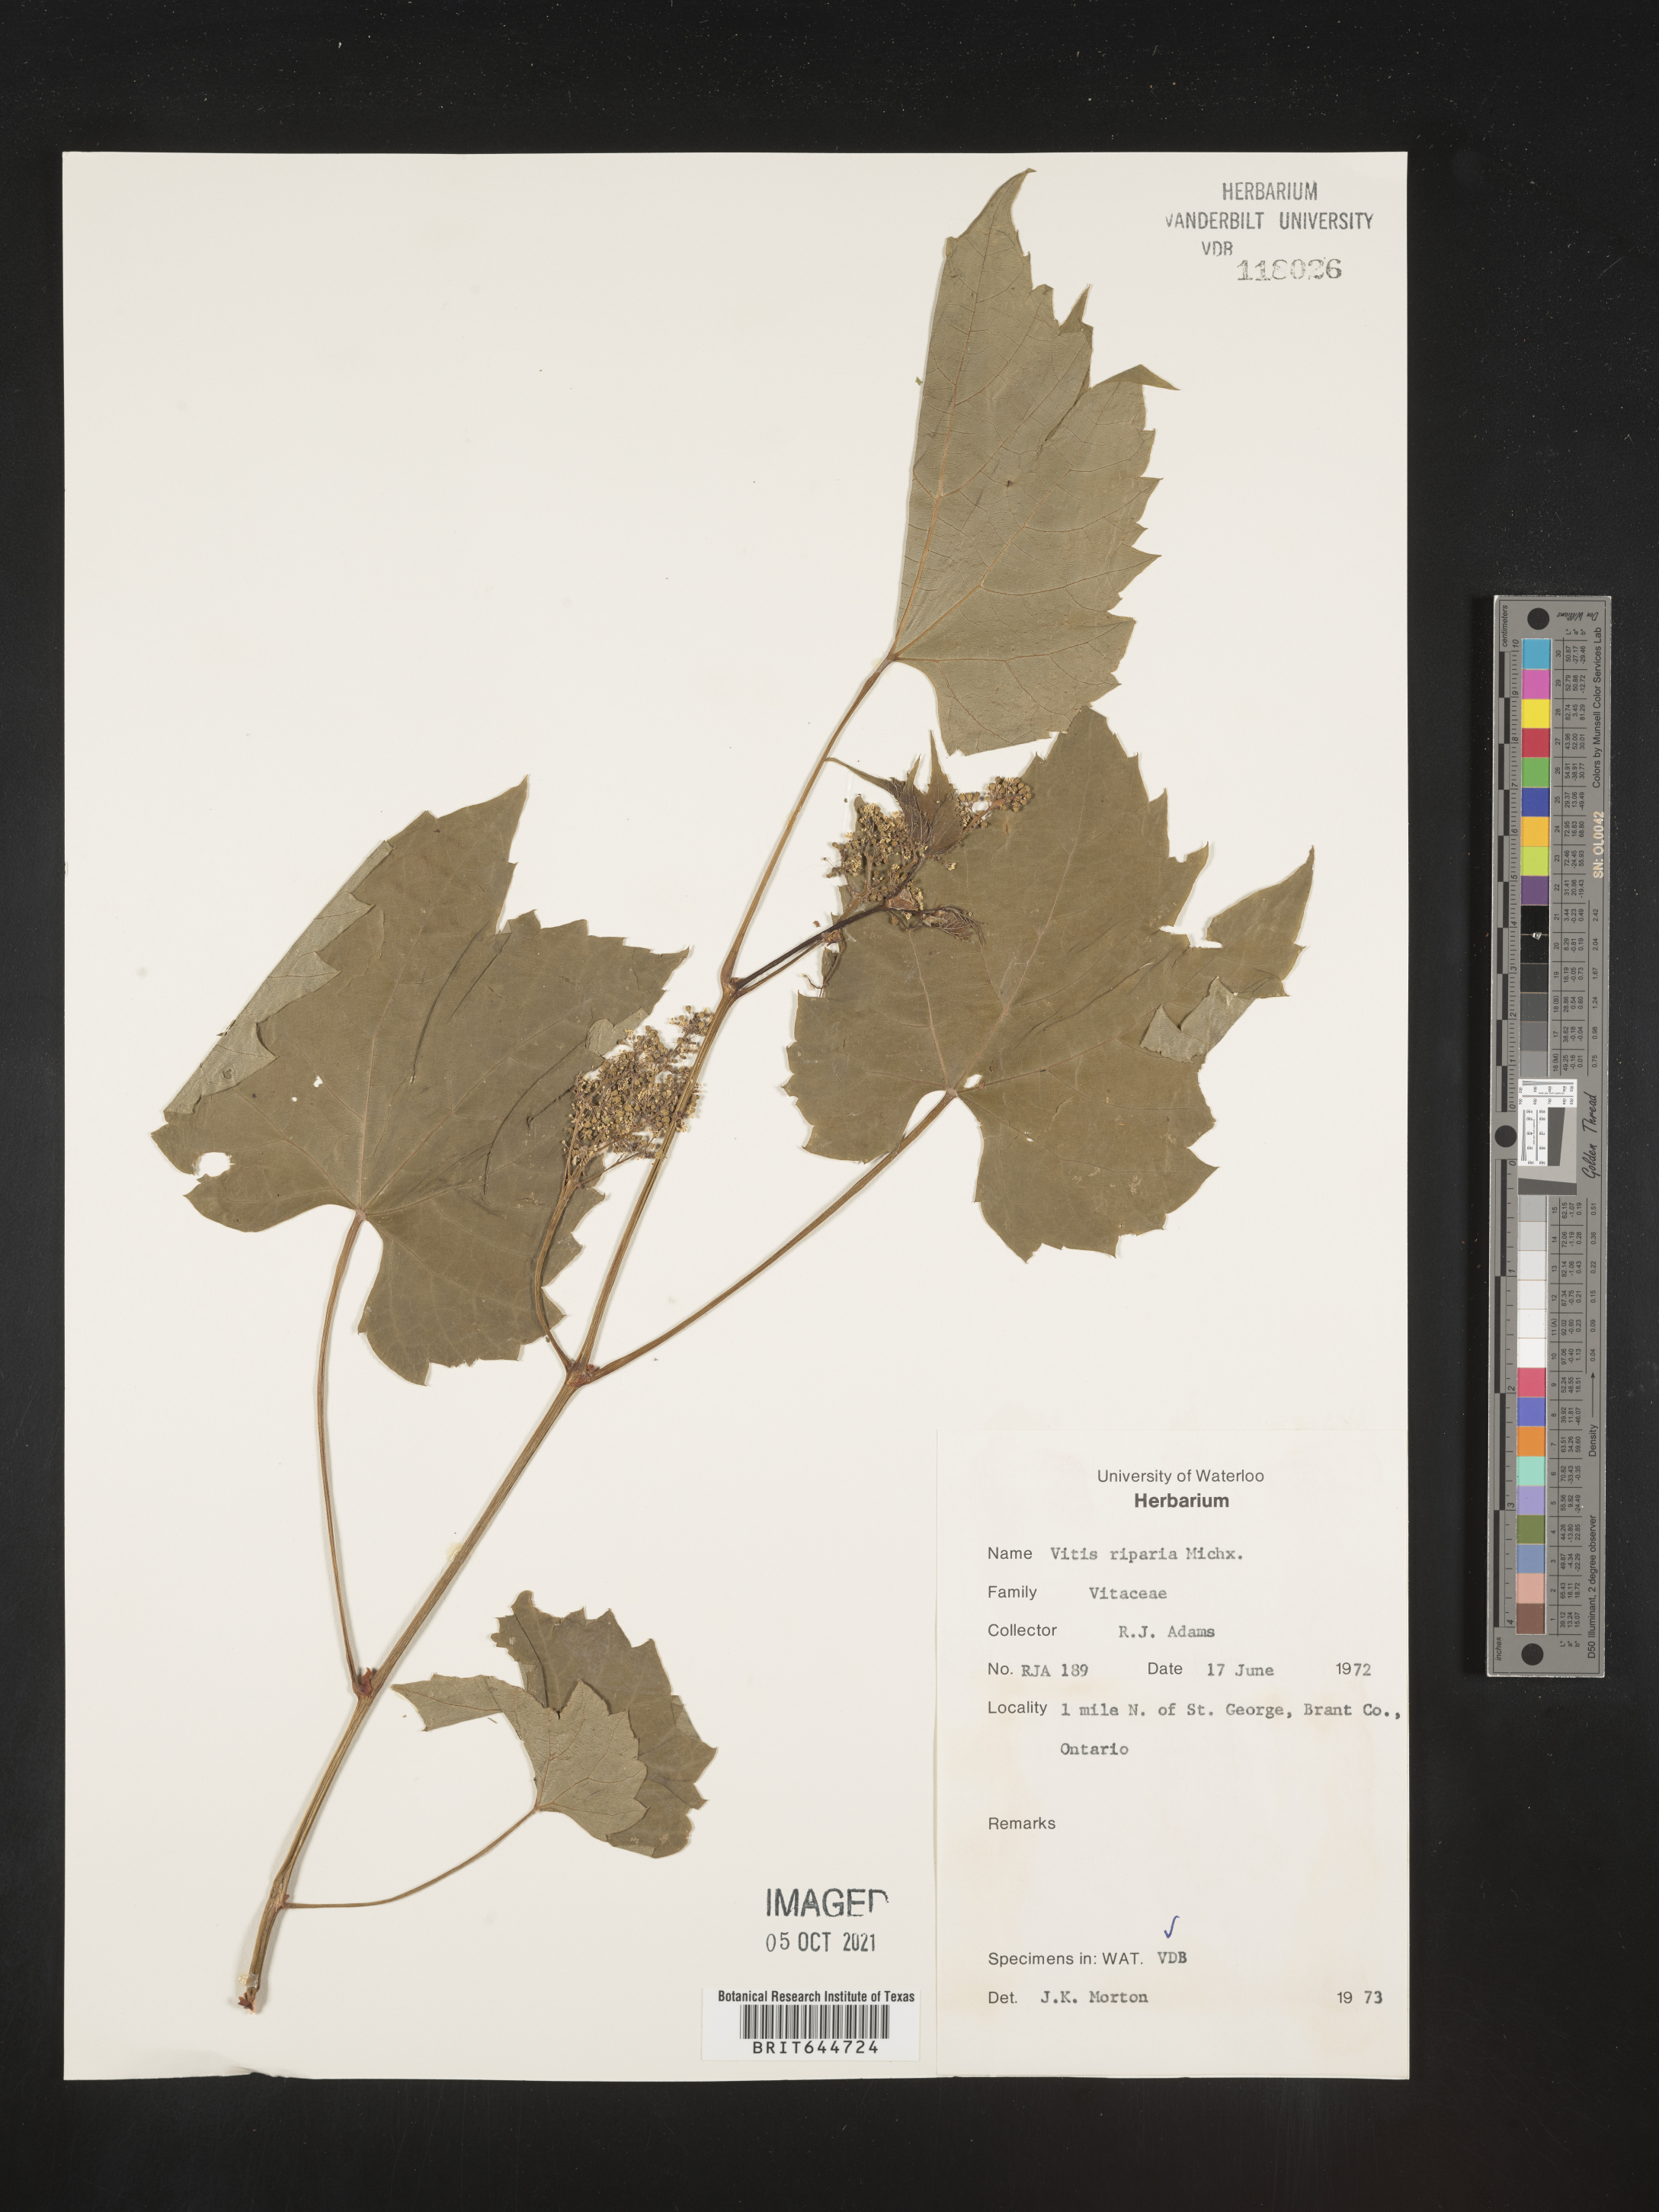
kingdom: Plantae
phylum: Tracheophyta
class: Magnoliopsida
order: Vitales
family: Vitaceae
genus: Vitis
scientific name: Vitis
